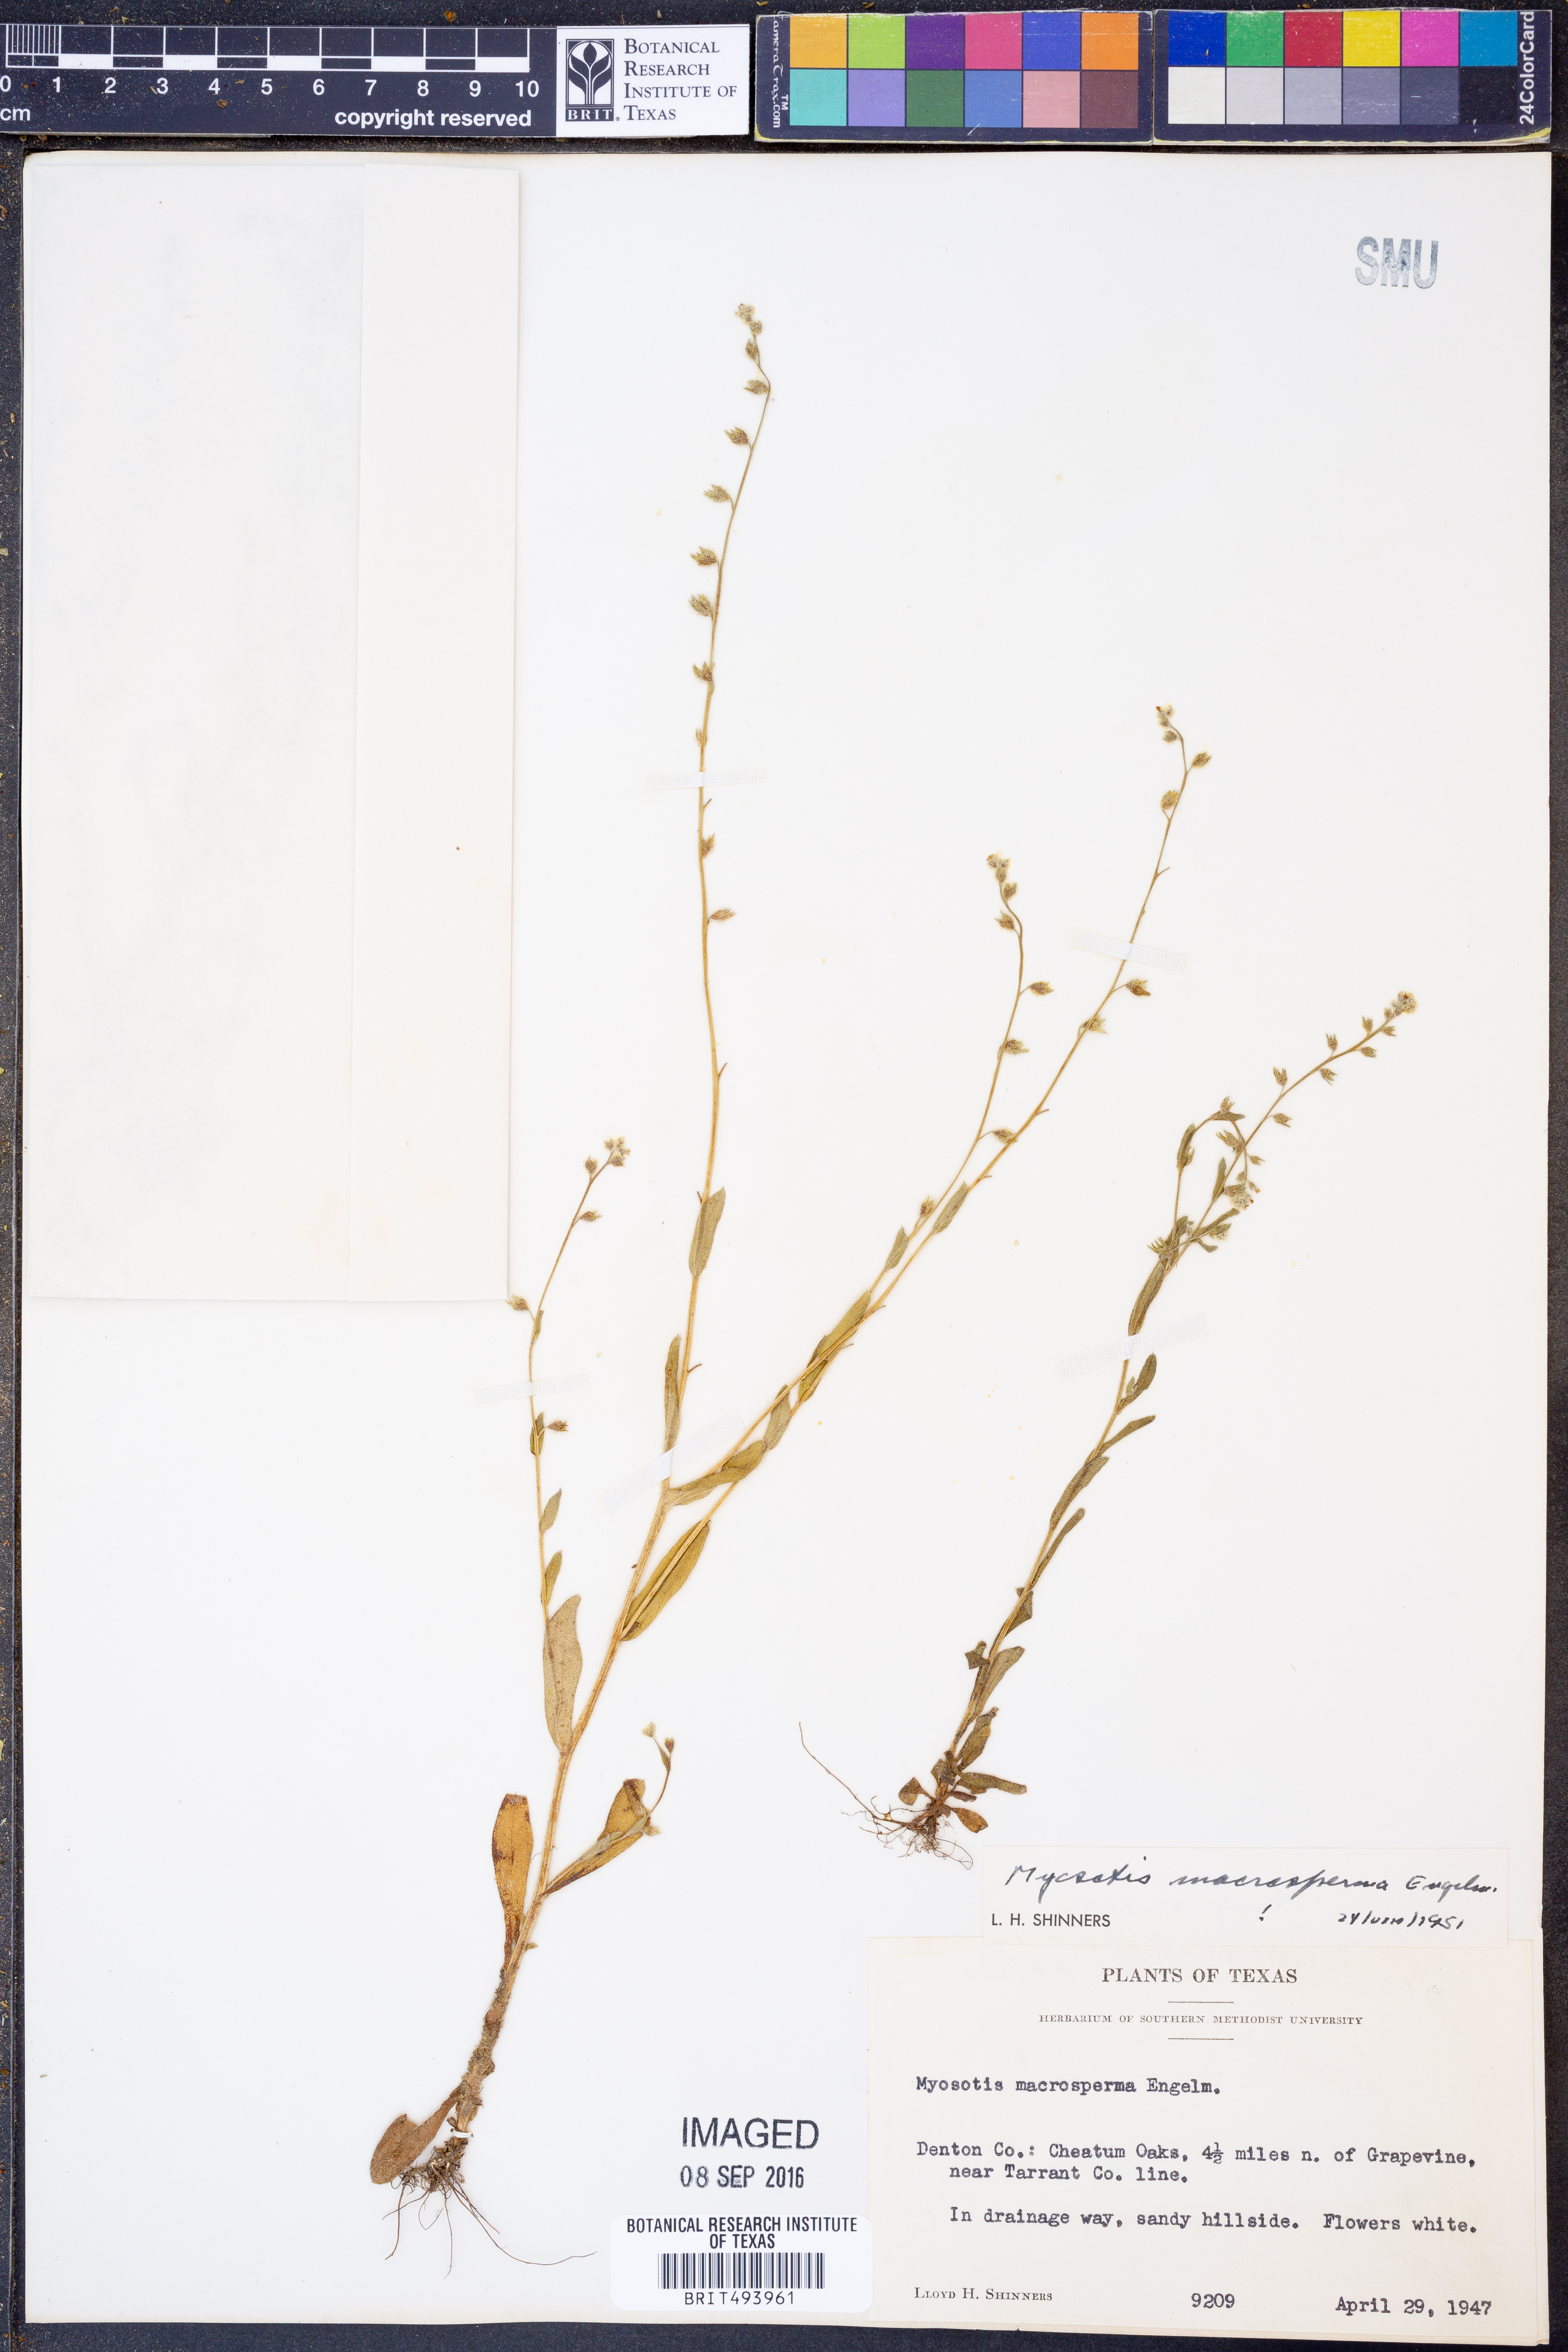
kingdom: Plantae
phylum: Tracheophyta
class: Magnoliopsida
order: Boraginales
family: Boraginaceae
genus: Myosotis
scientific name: Myosotis macrosperma
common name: Large-seed forget-me-not
